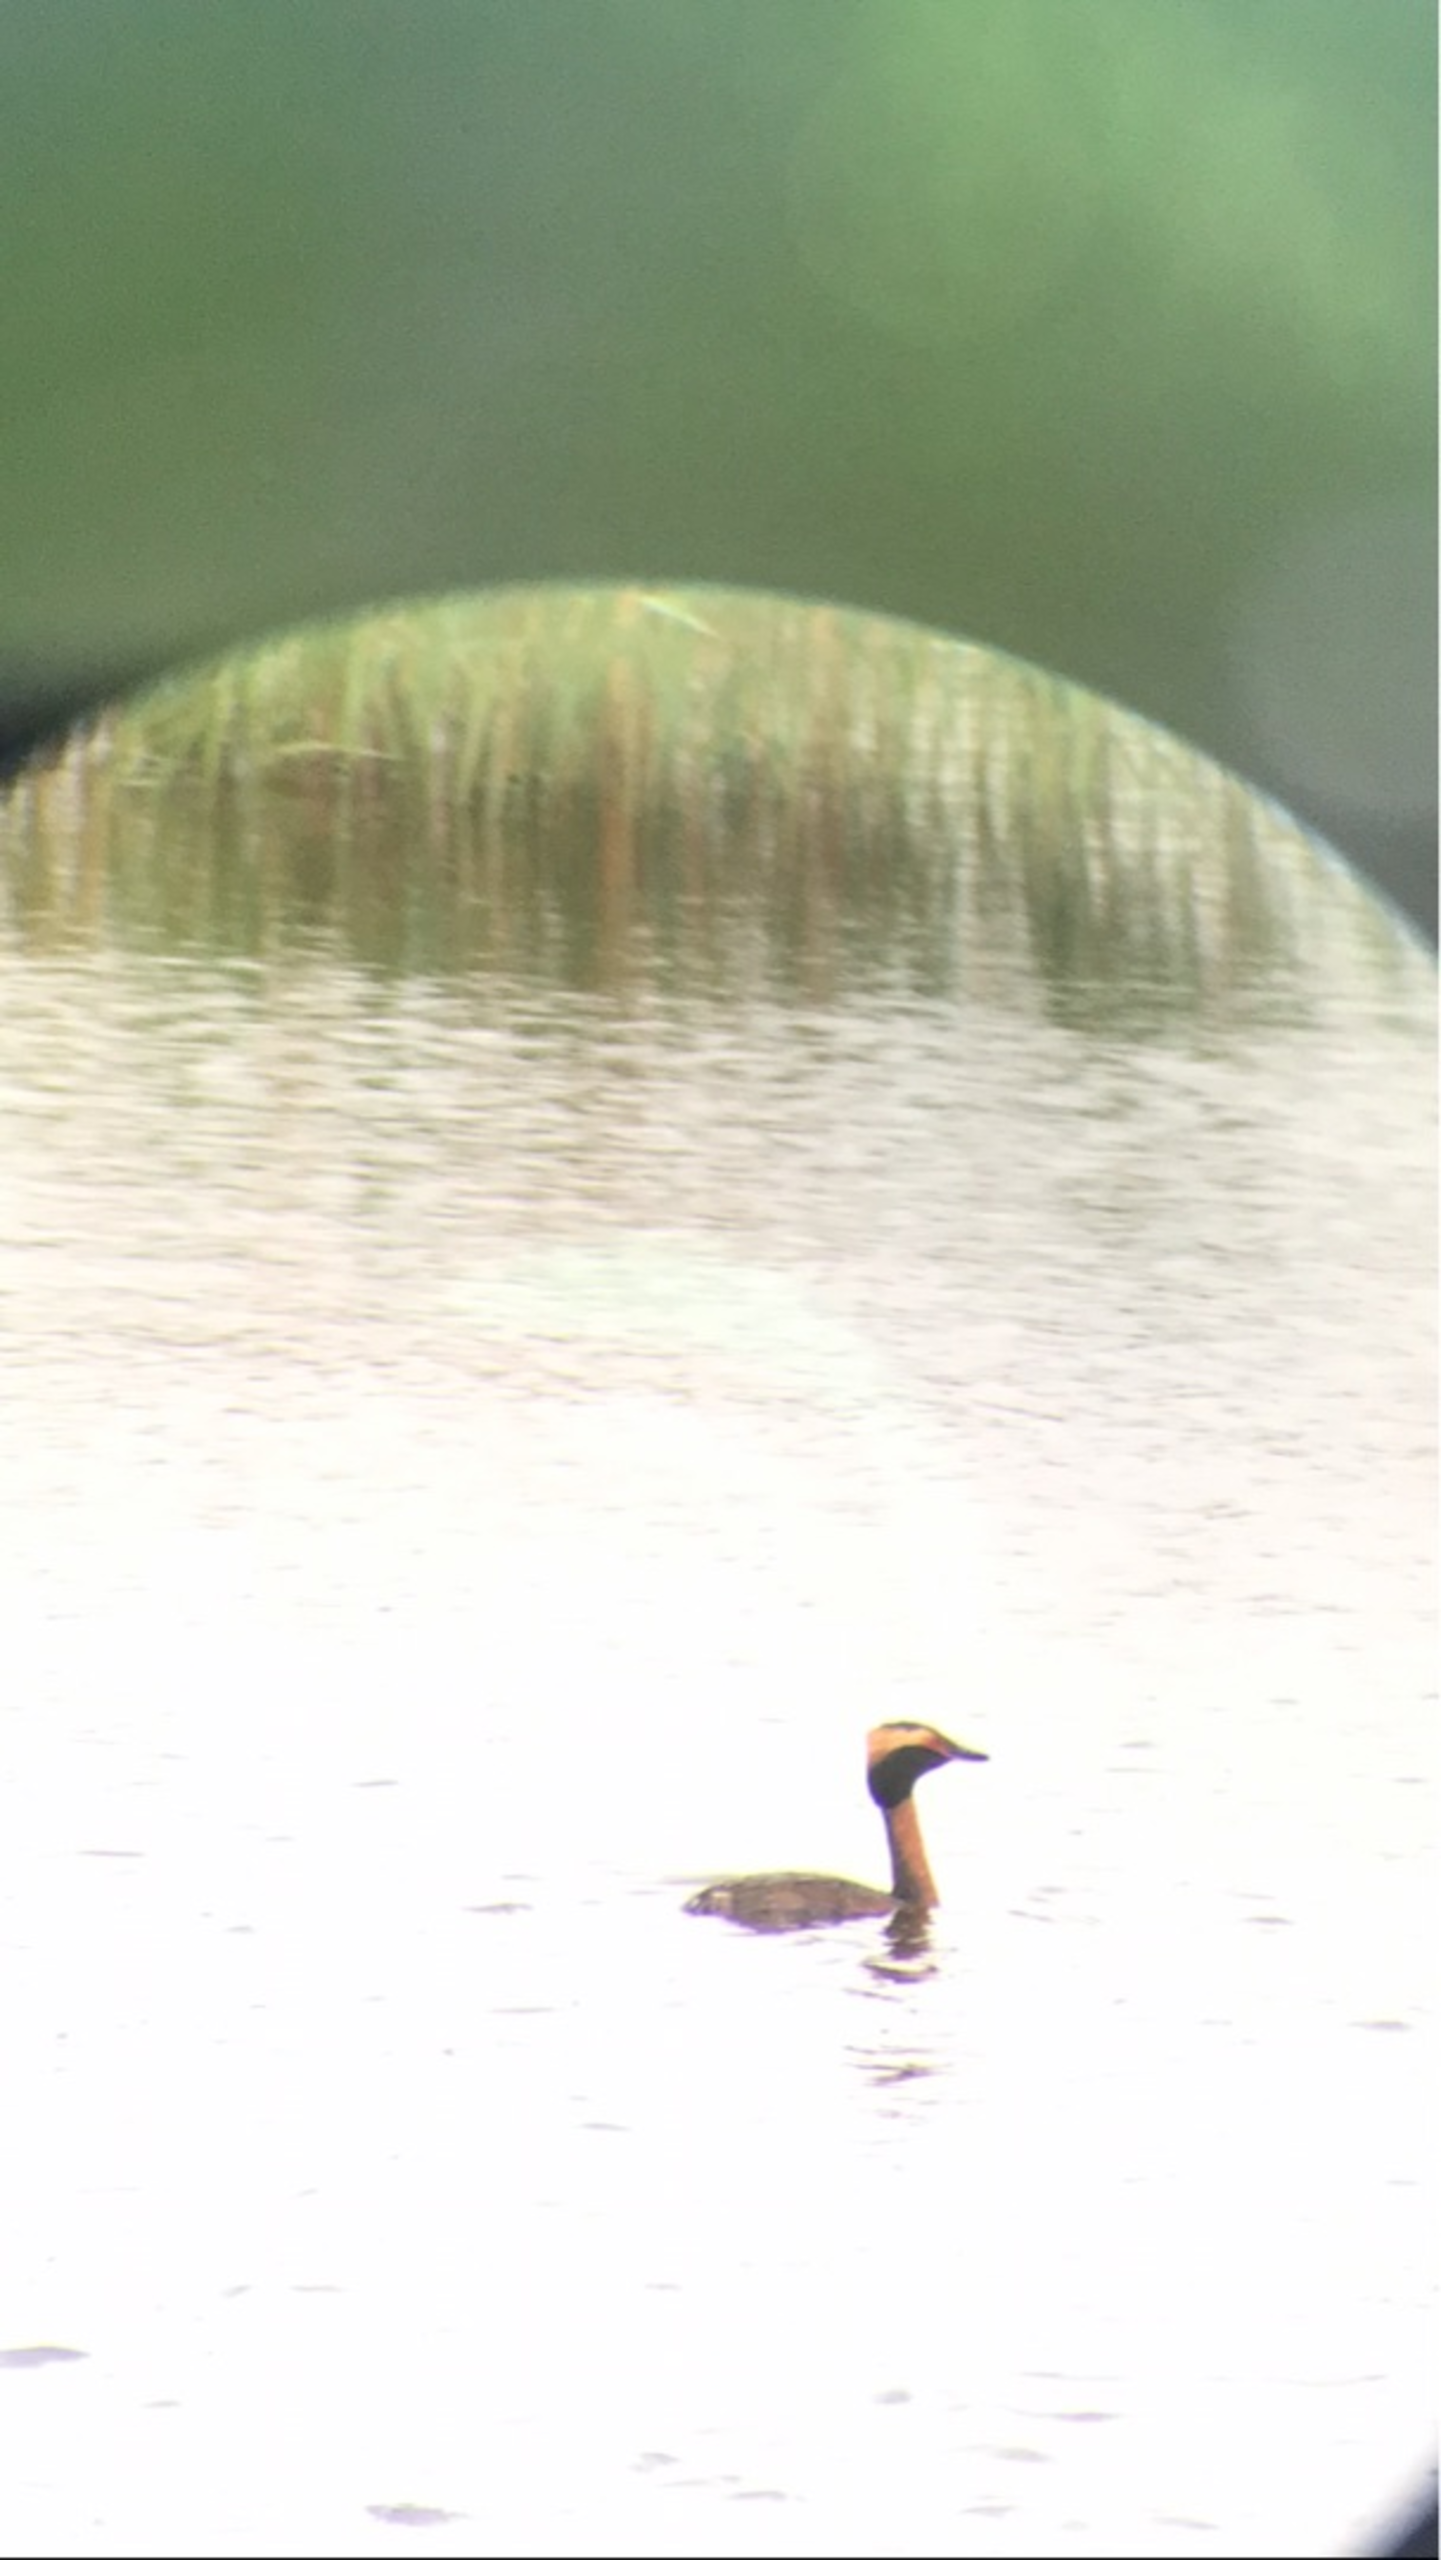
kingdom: Animalia
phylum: Chordata
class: Aves
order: Podicipediformes
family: Podicipedidae
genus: Podiceps
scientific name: Podiceps auritus
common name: Nordisk lappedykker
